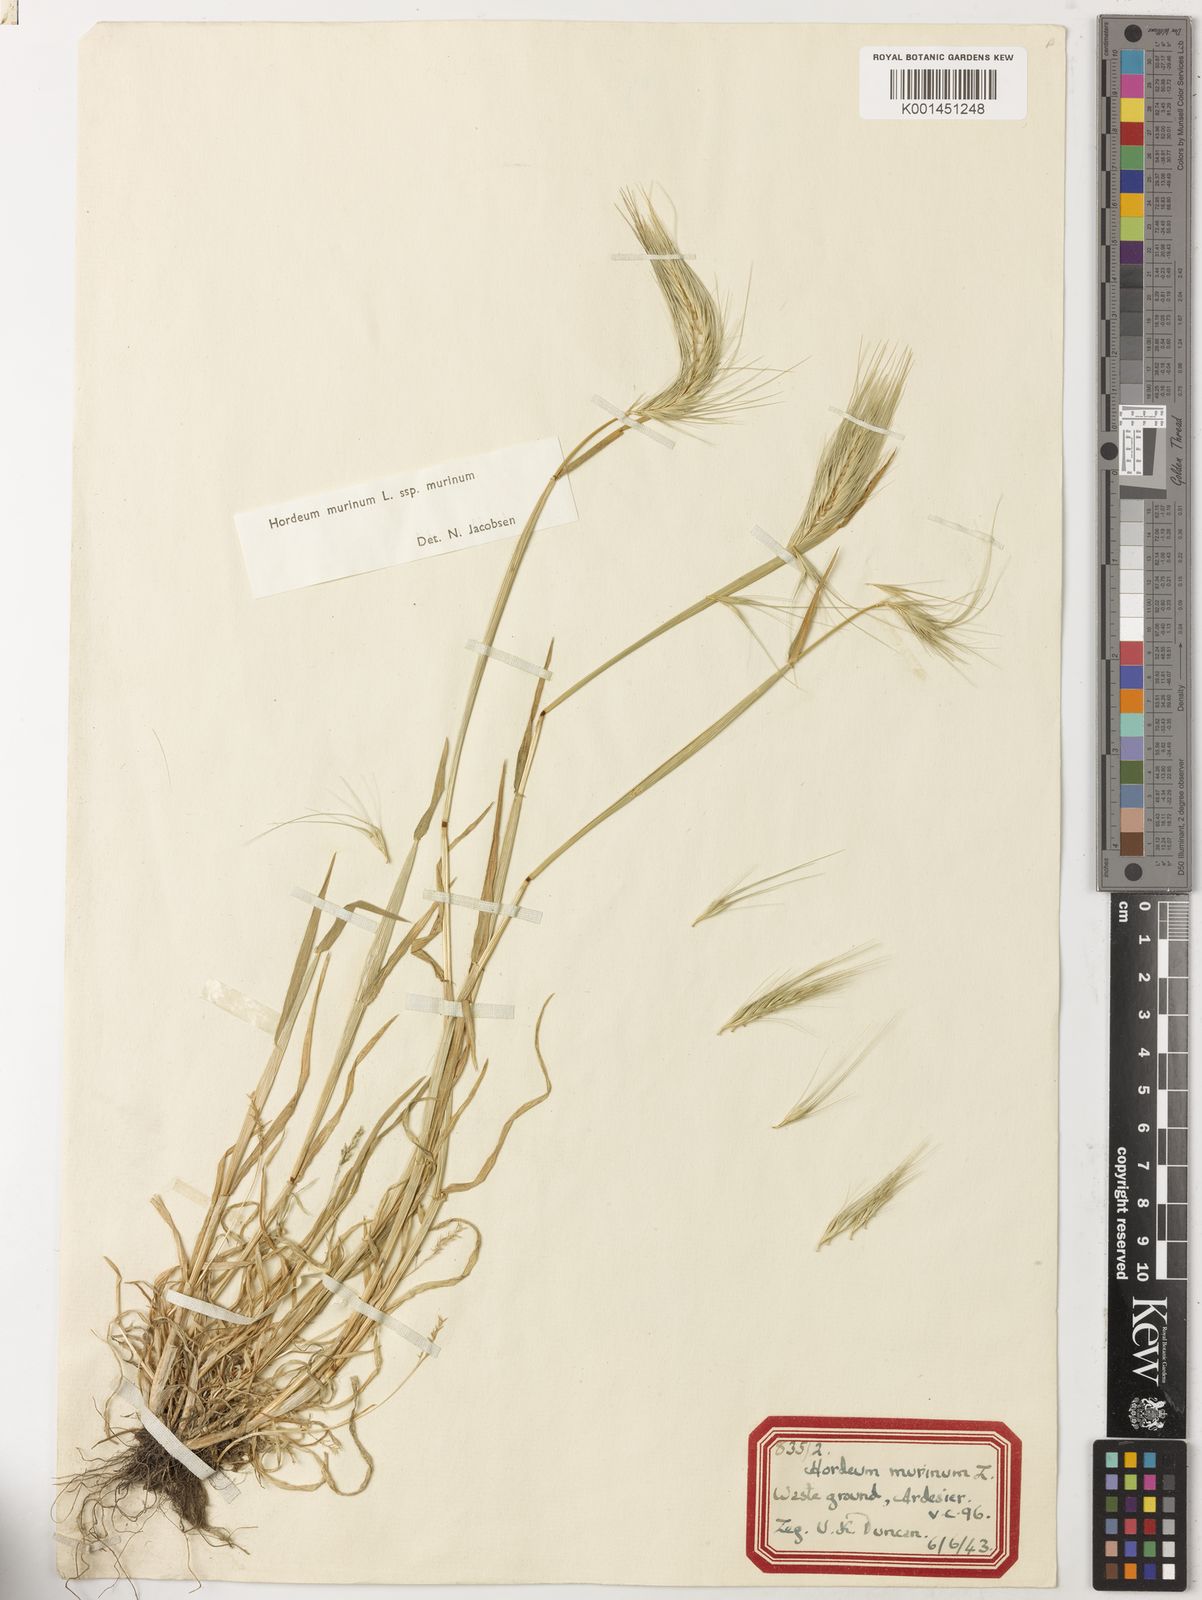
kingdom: Plantae
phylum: Tracheophyta
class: Liliopsida
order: Poales
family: Poaceae
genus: Hordeum
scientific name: Hordeum murinum
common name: Wall barley
